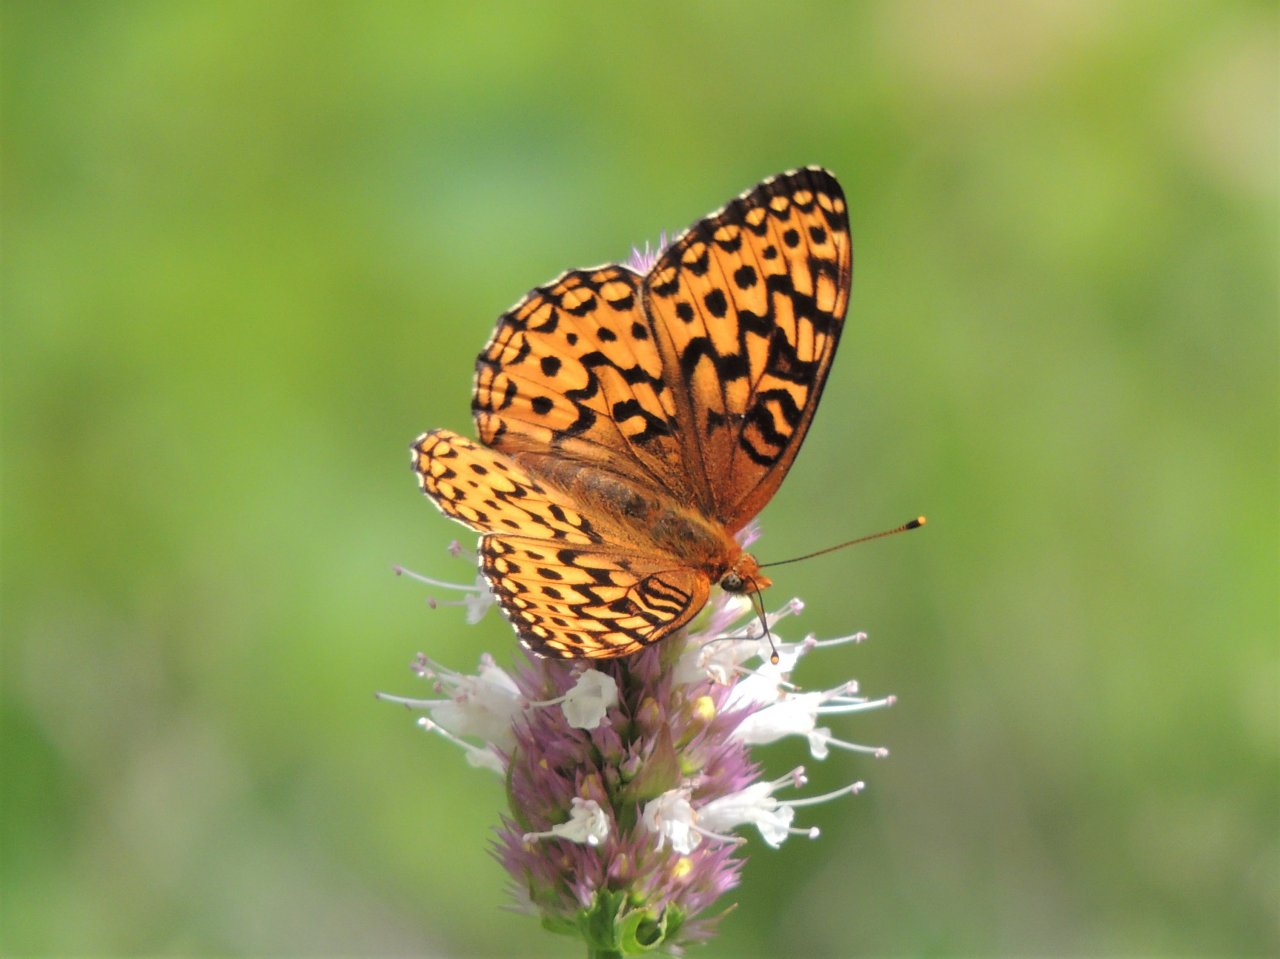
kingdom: Animalia
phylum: Arthropoda
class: Insecta
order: Lepidoptera
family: Nymphalidae
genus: Speyeria
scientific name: Speyeria hydaspe
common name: Hydaspe Fritillary
